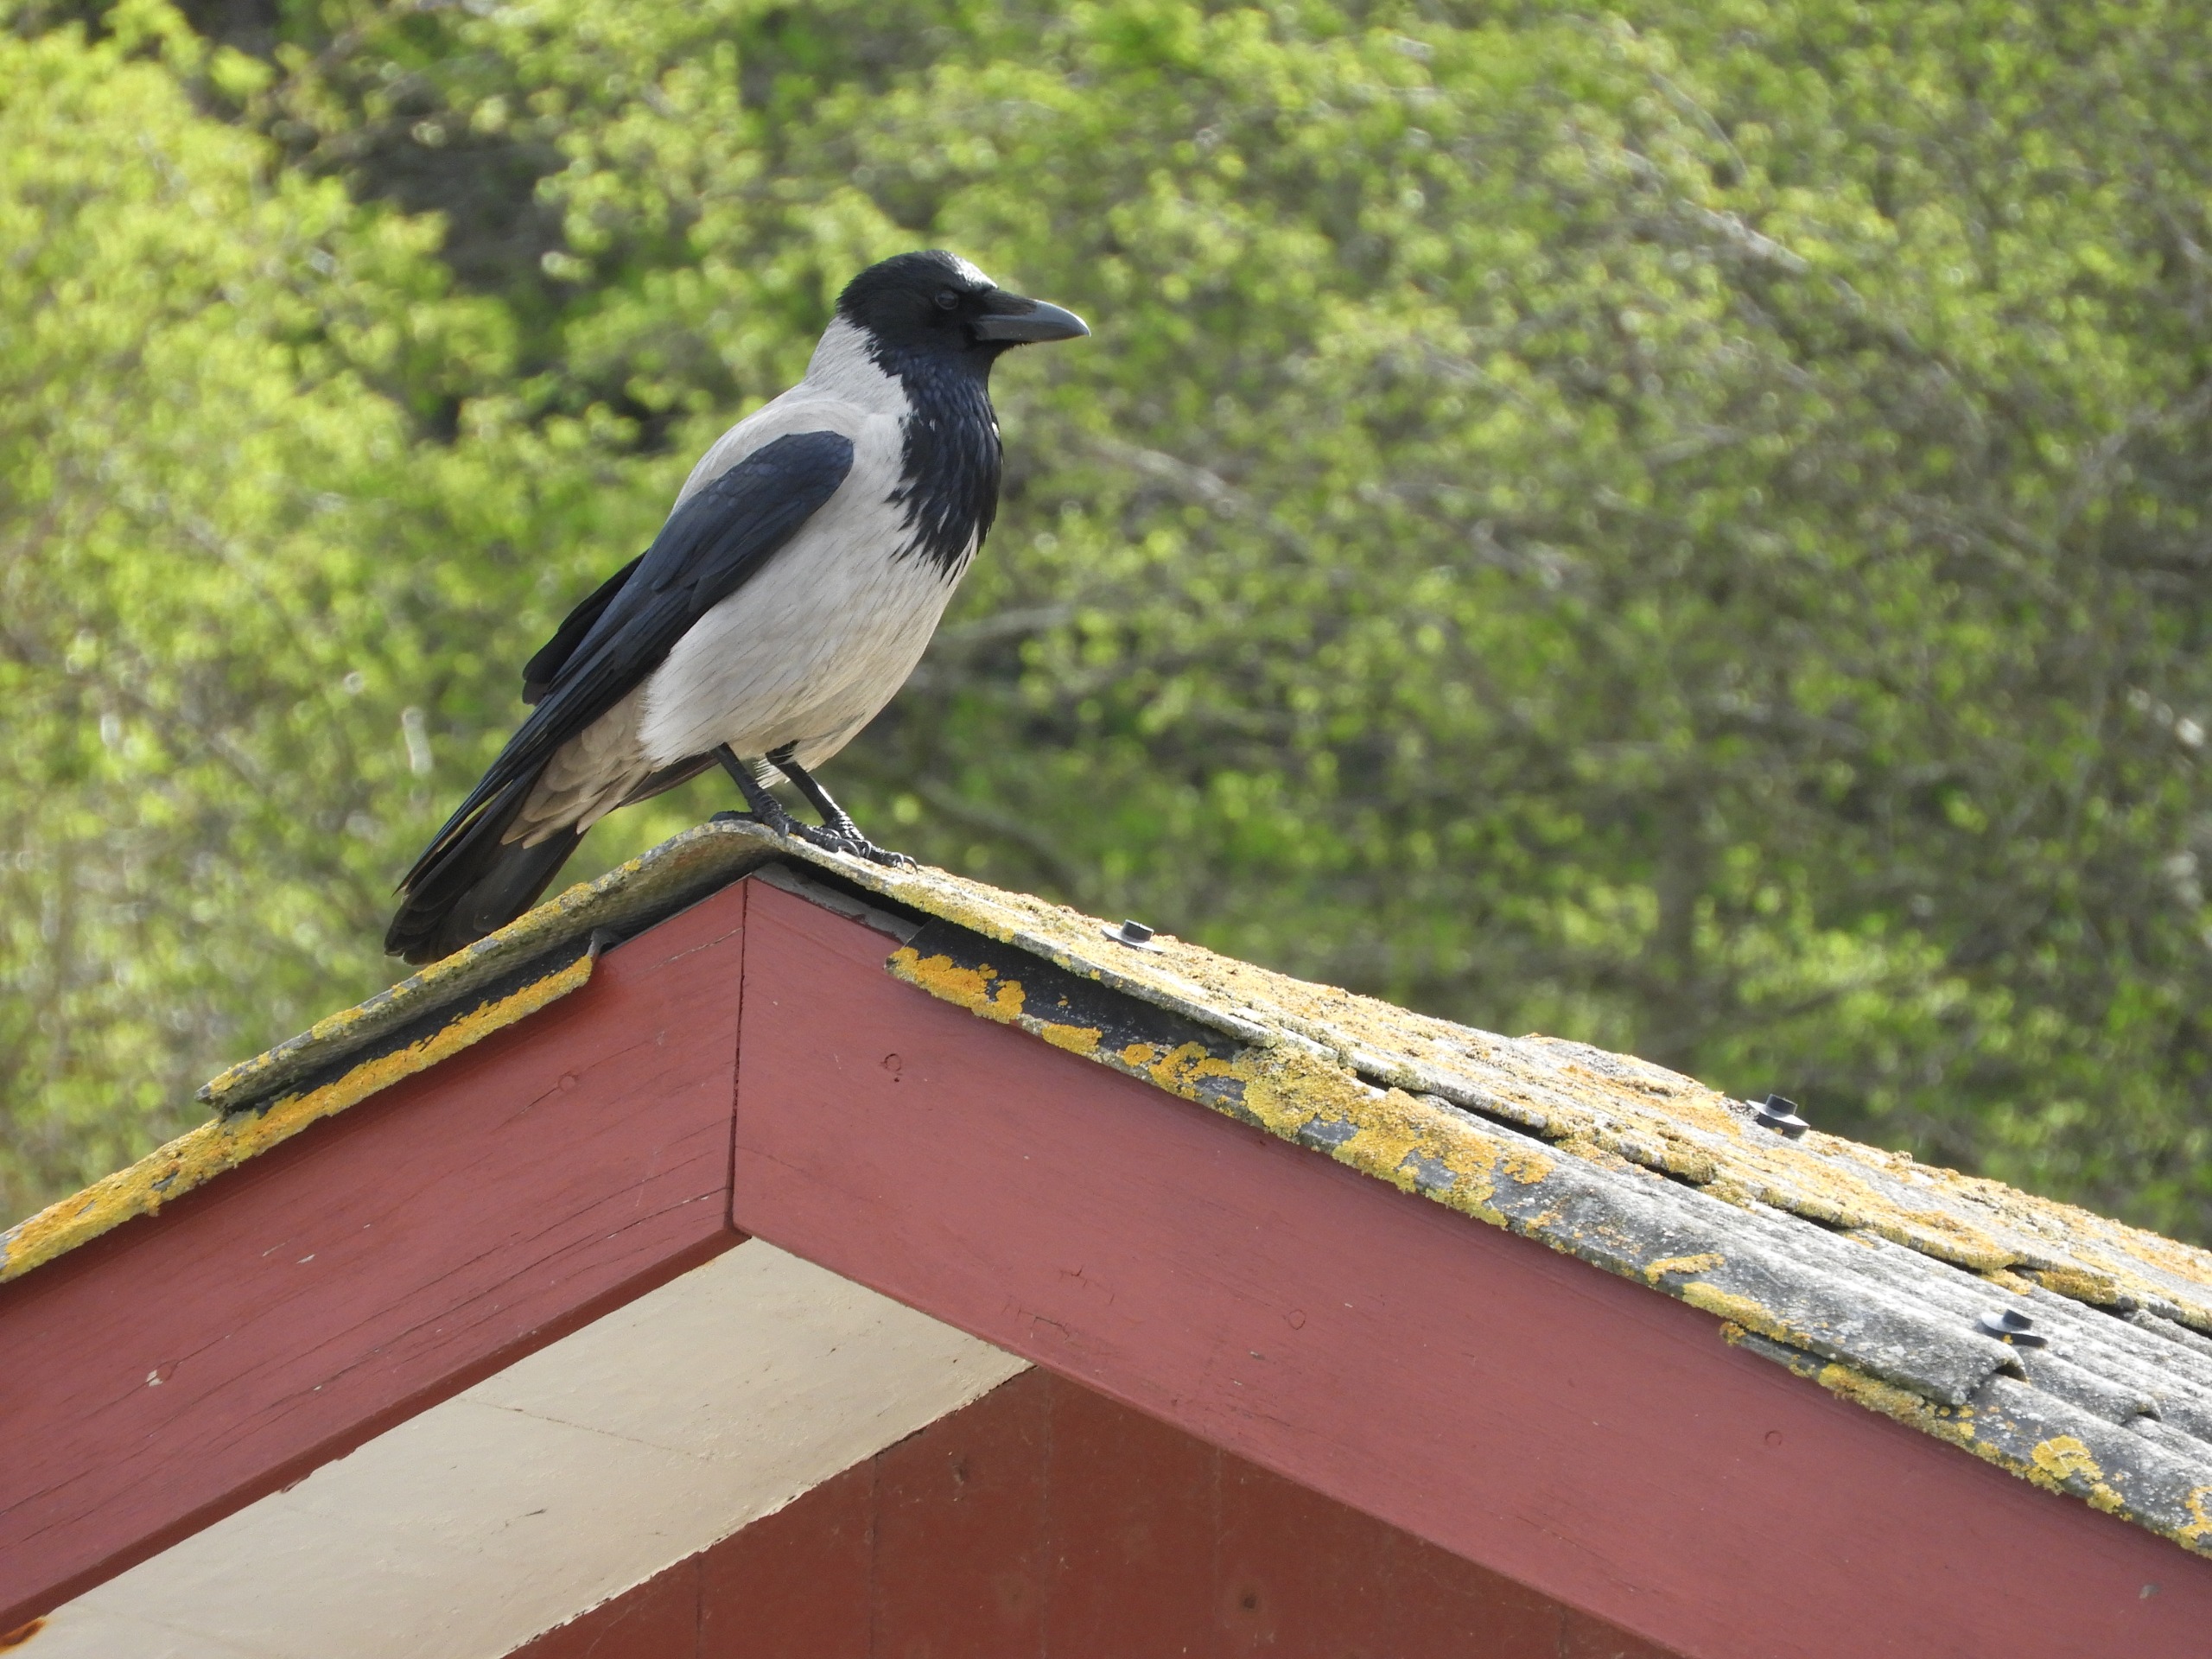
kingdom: Animalia
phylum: Chordata
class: Aves
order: Passeriformes
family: Corvidae
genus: Corvus
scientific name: Corvus cornix
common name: Gråkrage
